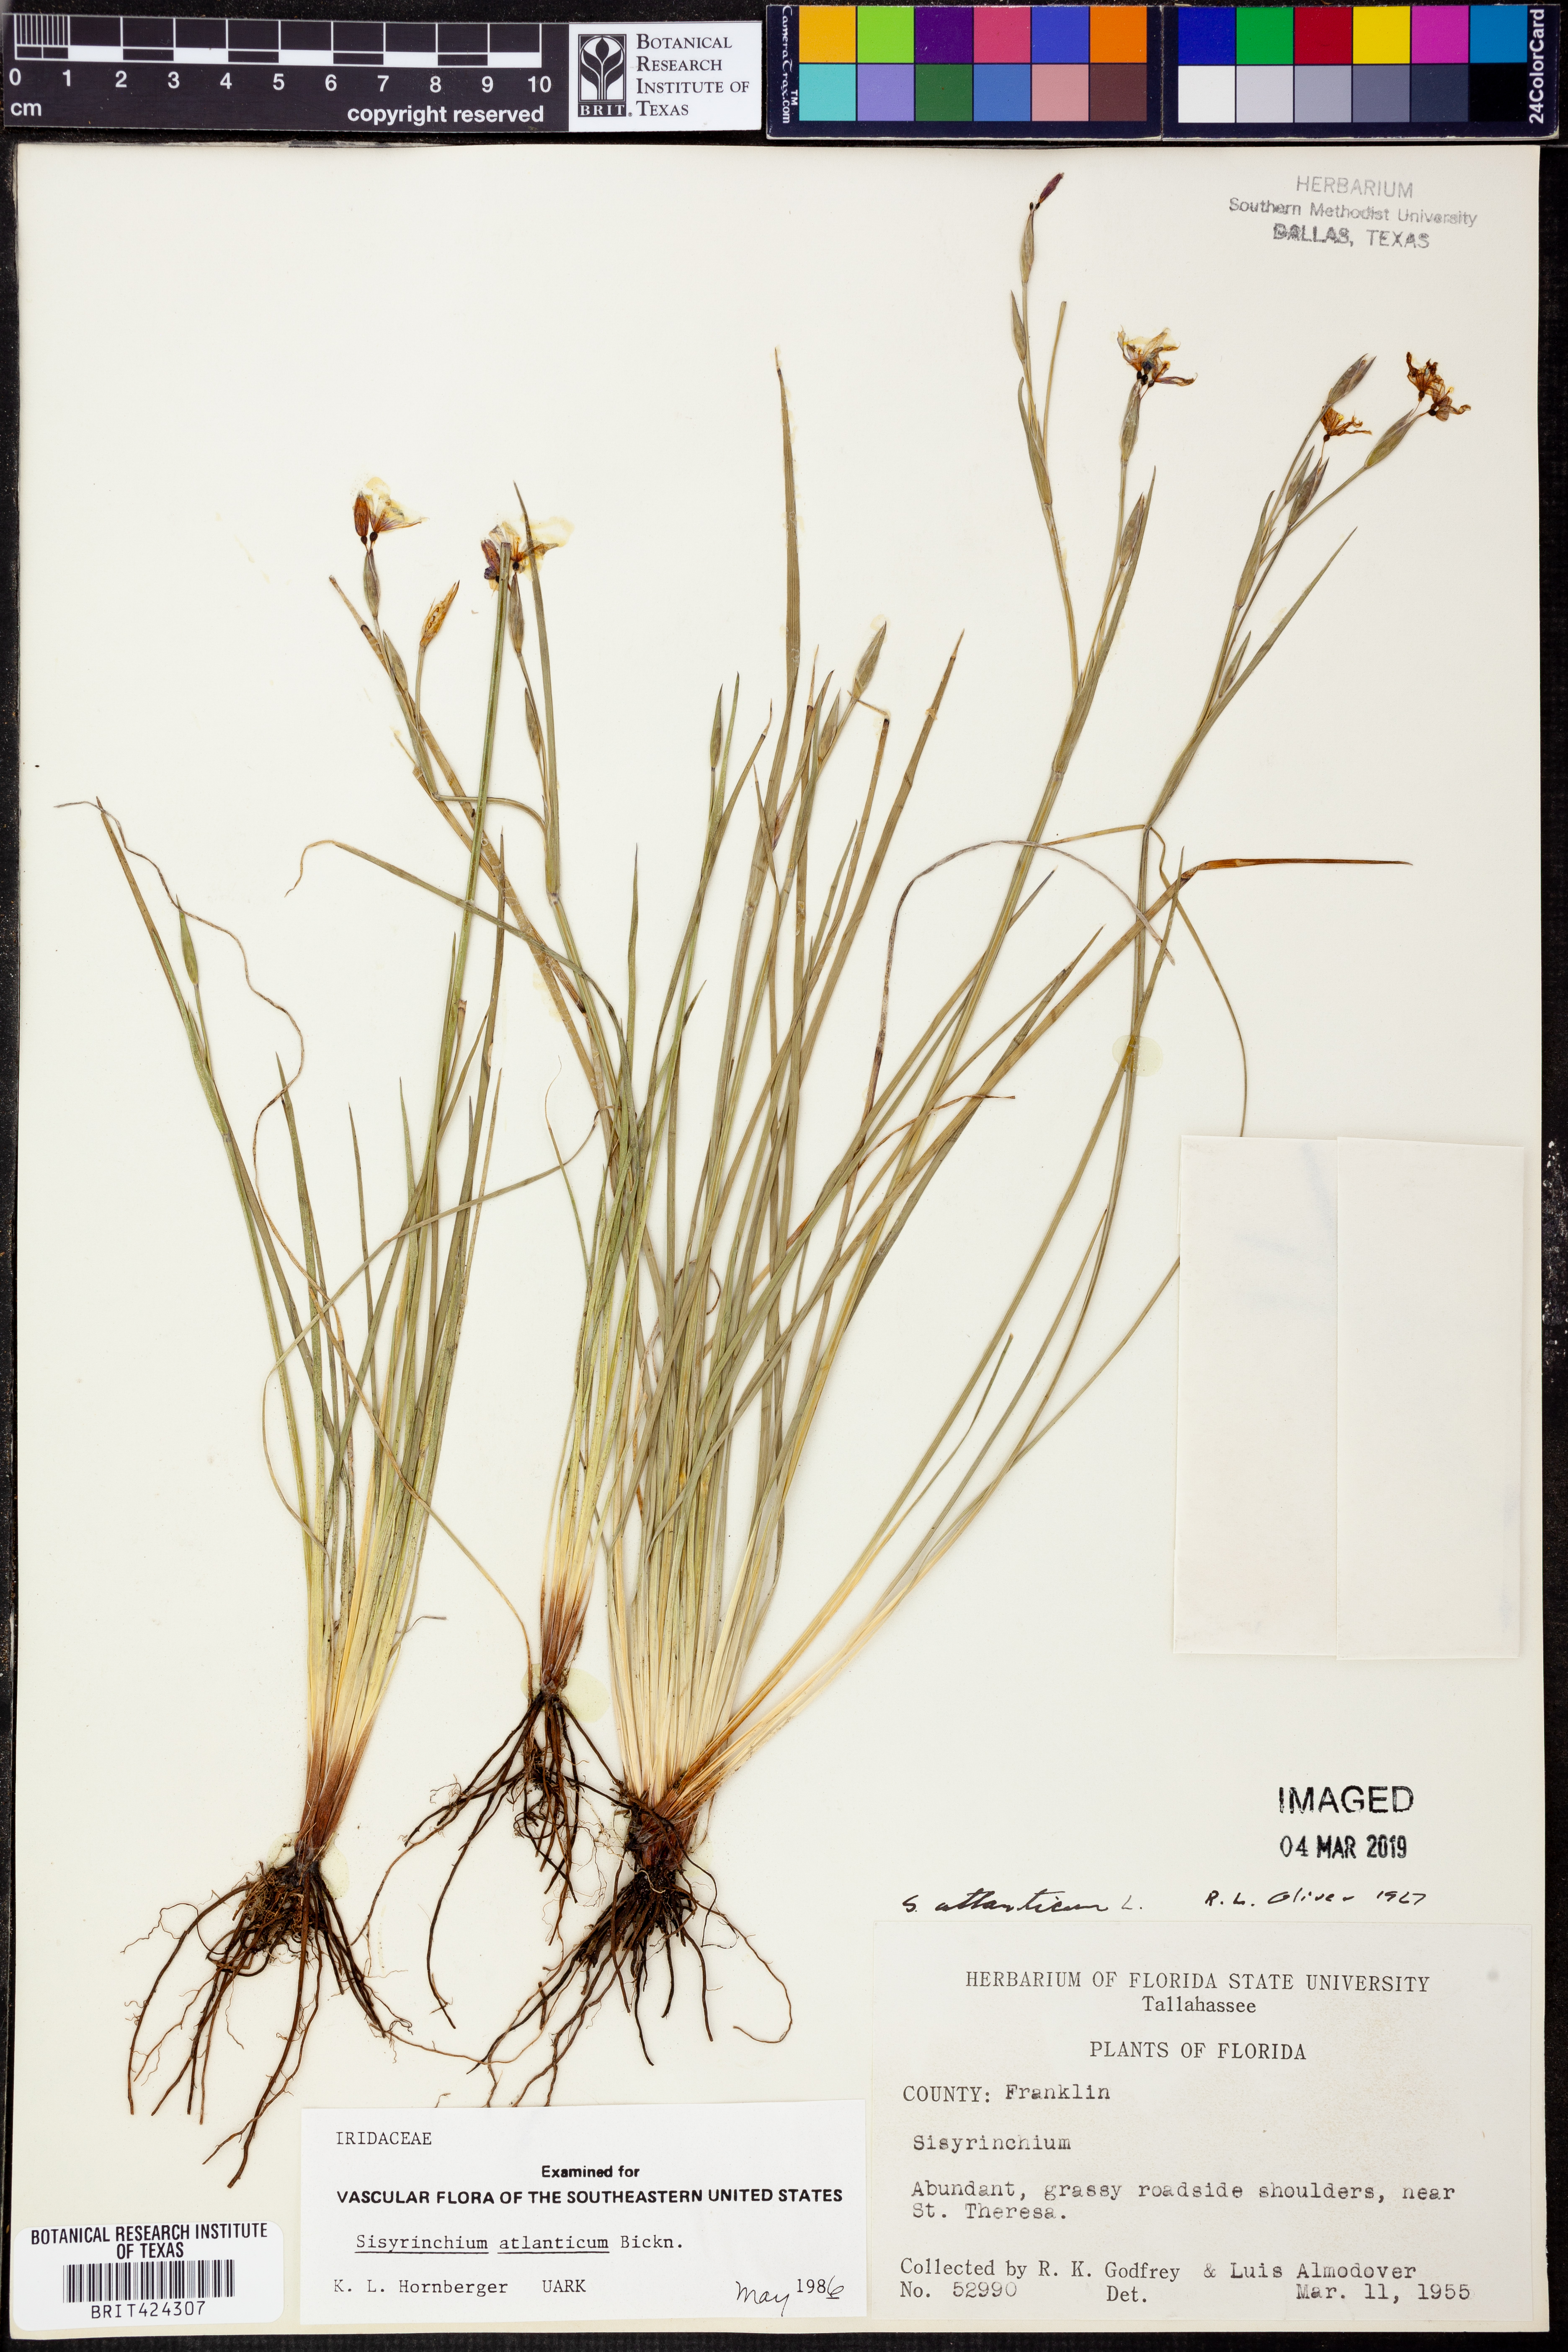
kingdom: Plantae
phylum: Tracheophyta
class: Liliopsida
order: Asparagales
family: Iridaceae
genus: Sisyrinchium
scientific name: Sisyrinchium atlanticum
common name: Eastern blue-eyed-grass
